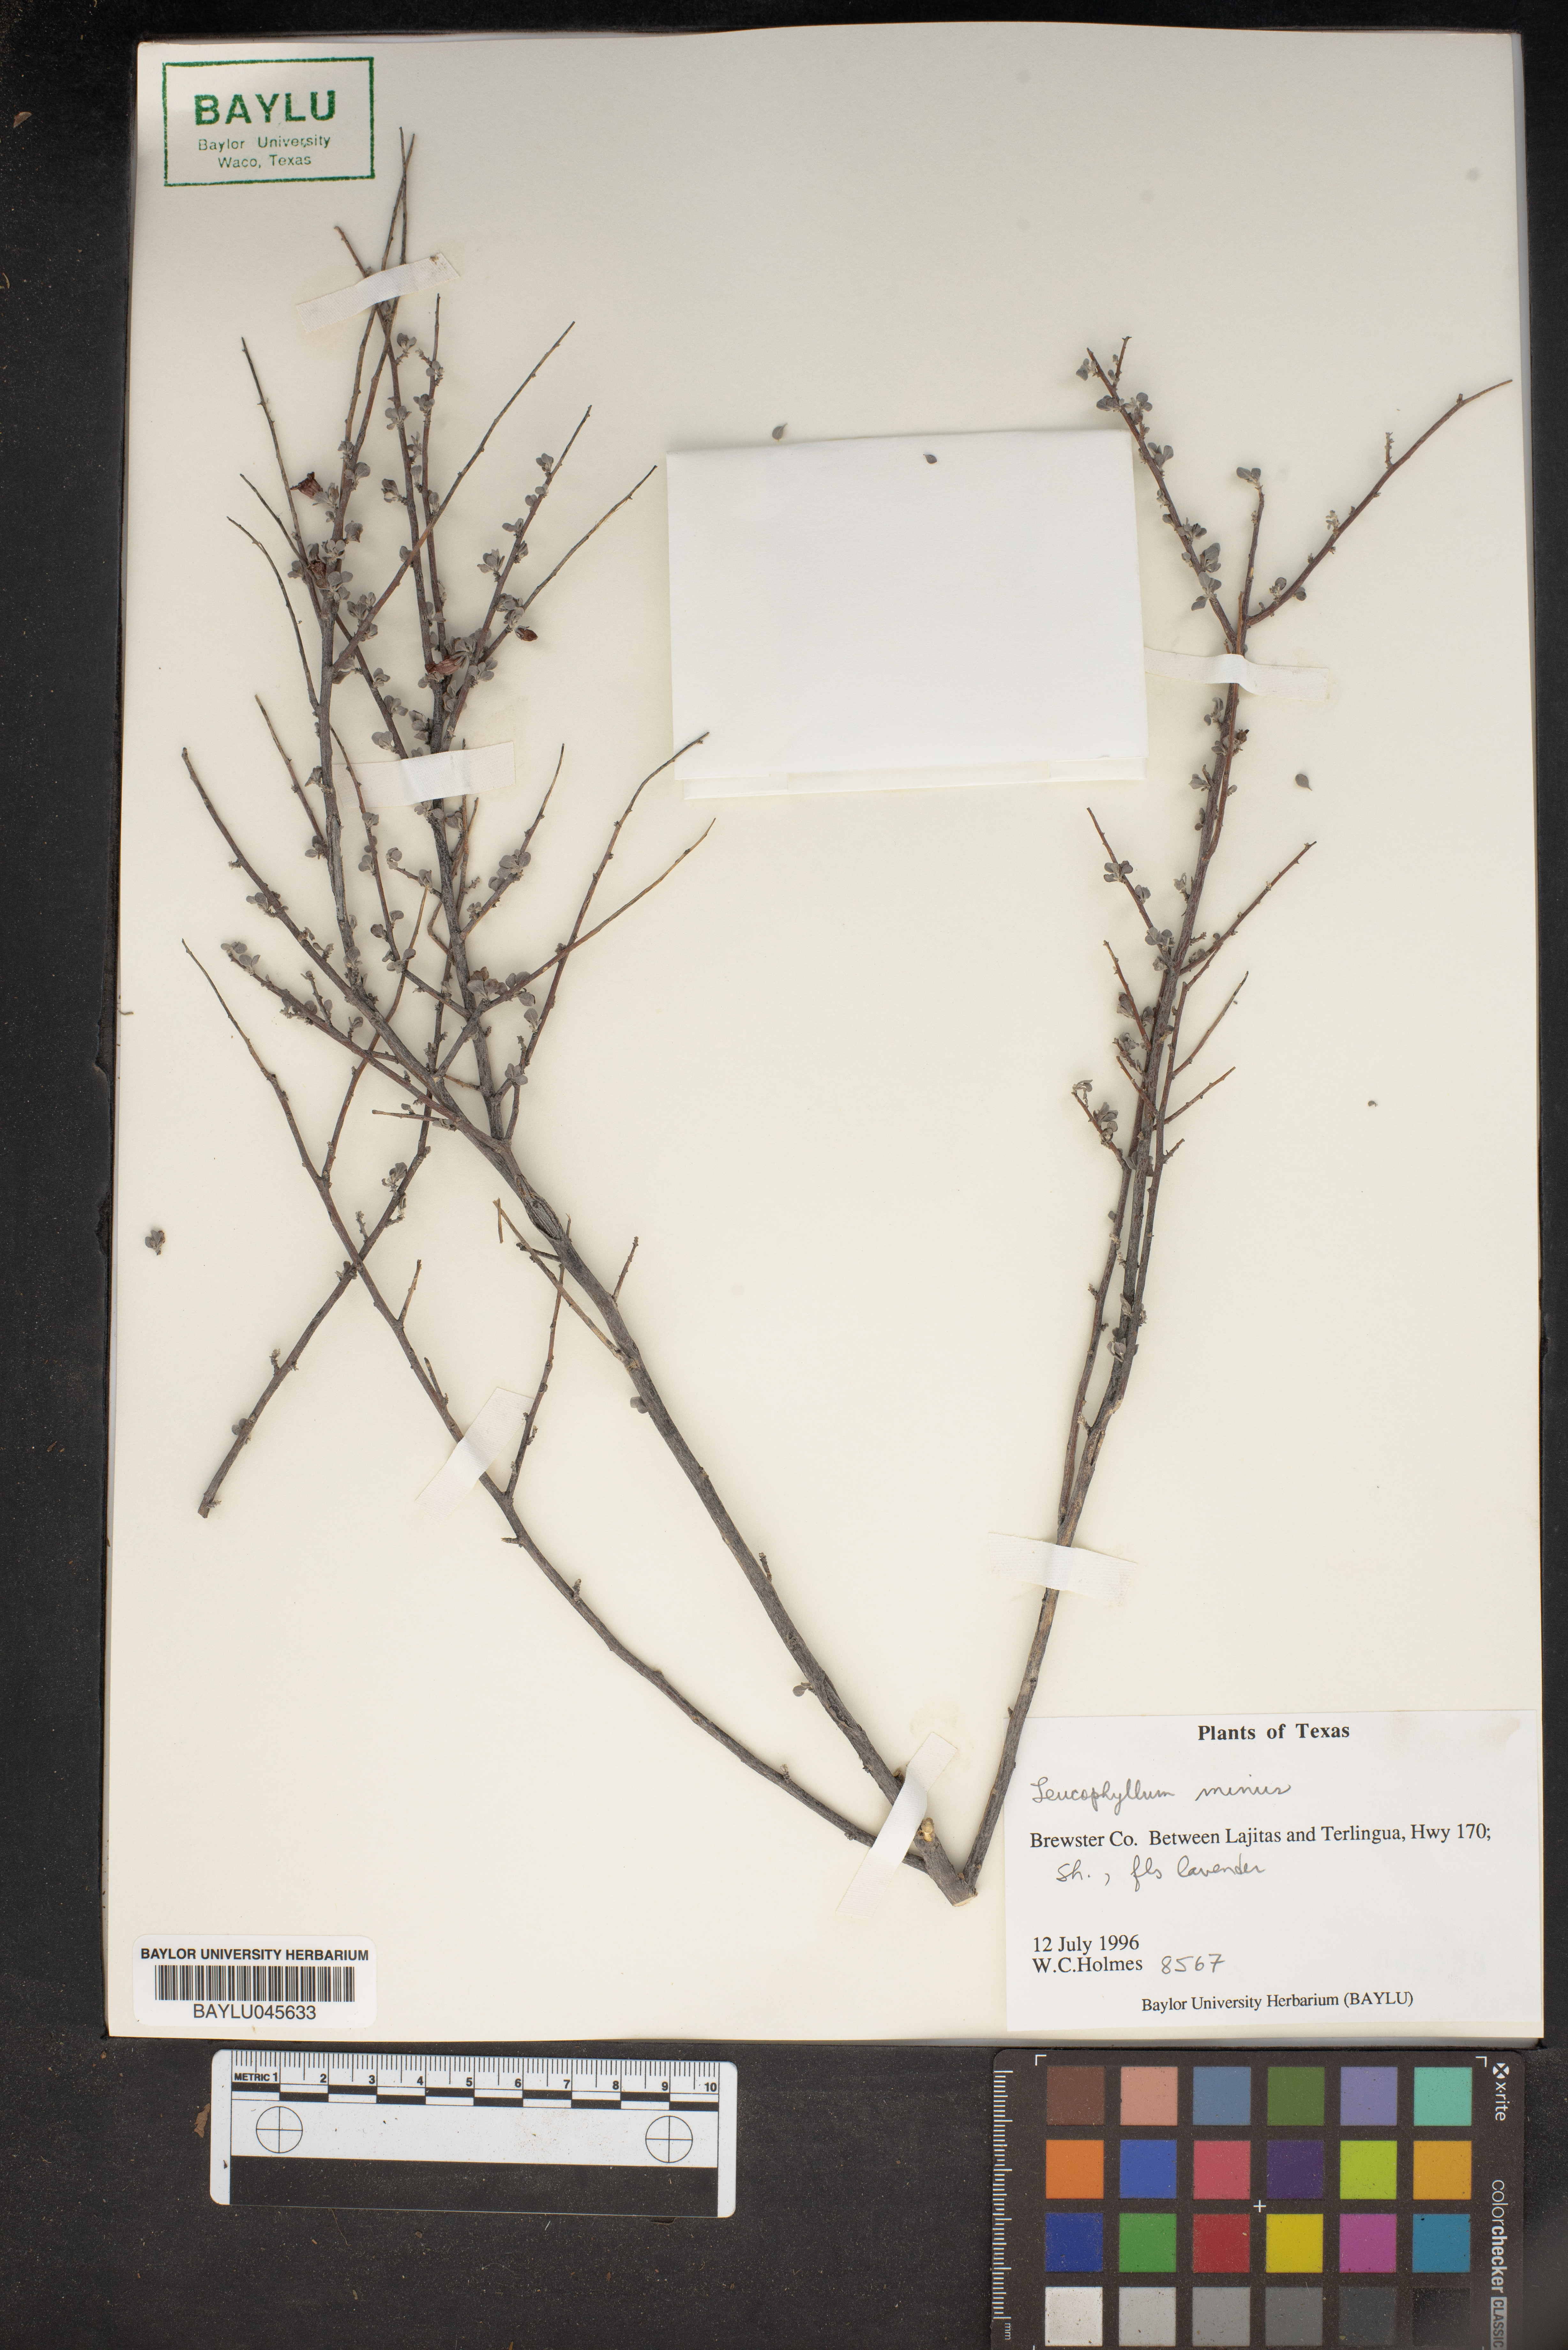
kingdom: Plantae
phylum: Tracheophyta
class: Magnoliopsida
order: Lamiales
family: Scrophulariaceae
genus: Leucophyllum
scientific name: Leucophyllum minus
